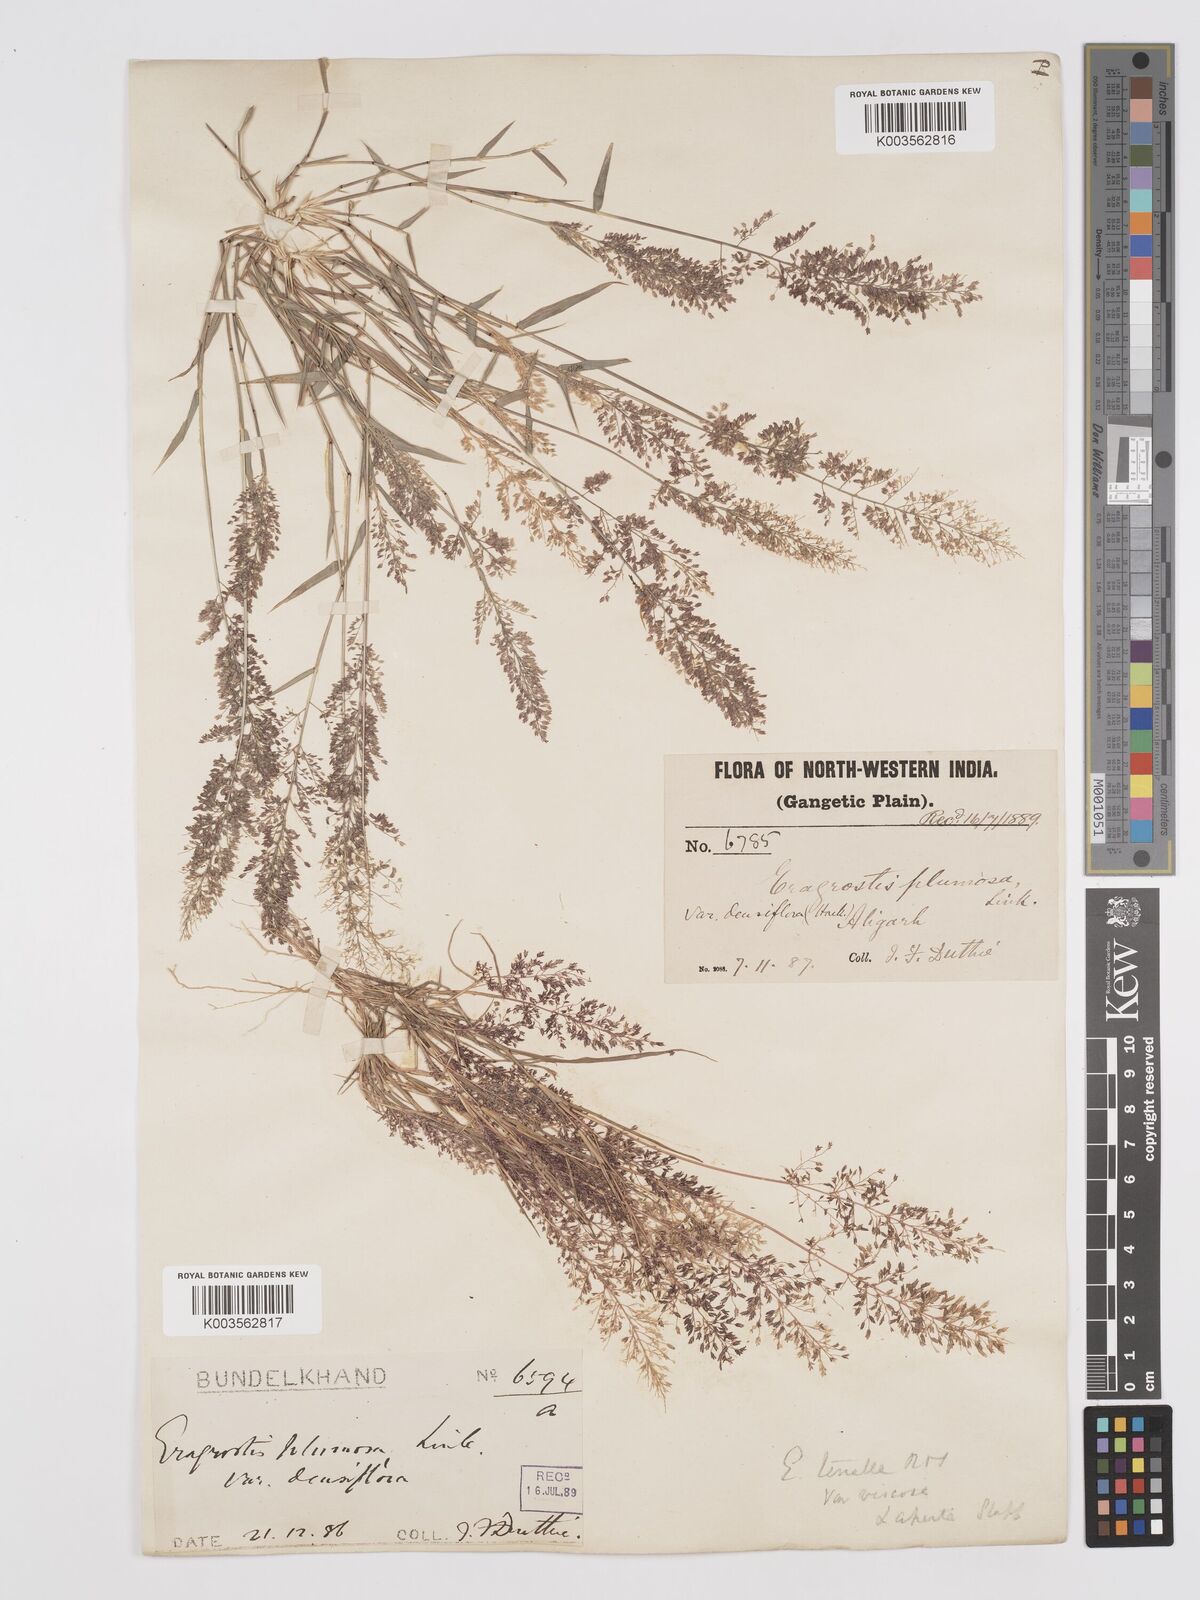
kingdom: Plantae
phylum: Tracheophyta
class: Liliopsida
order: Poales
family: Poaceae
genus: Eragrostis
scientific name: Eragrostis viscosa
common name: Sticky love grass
